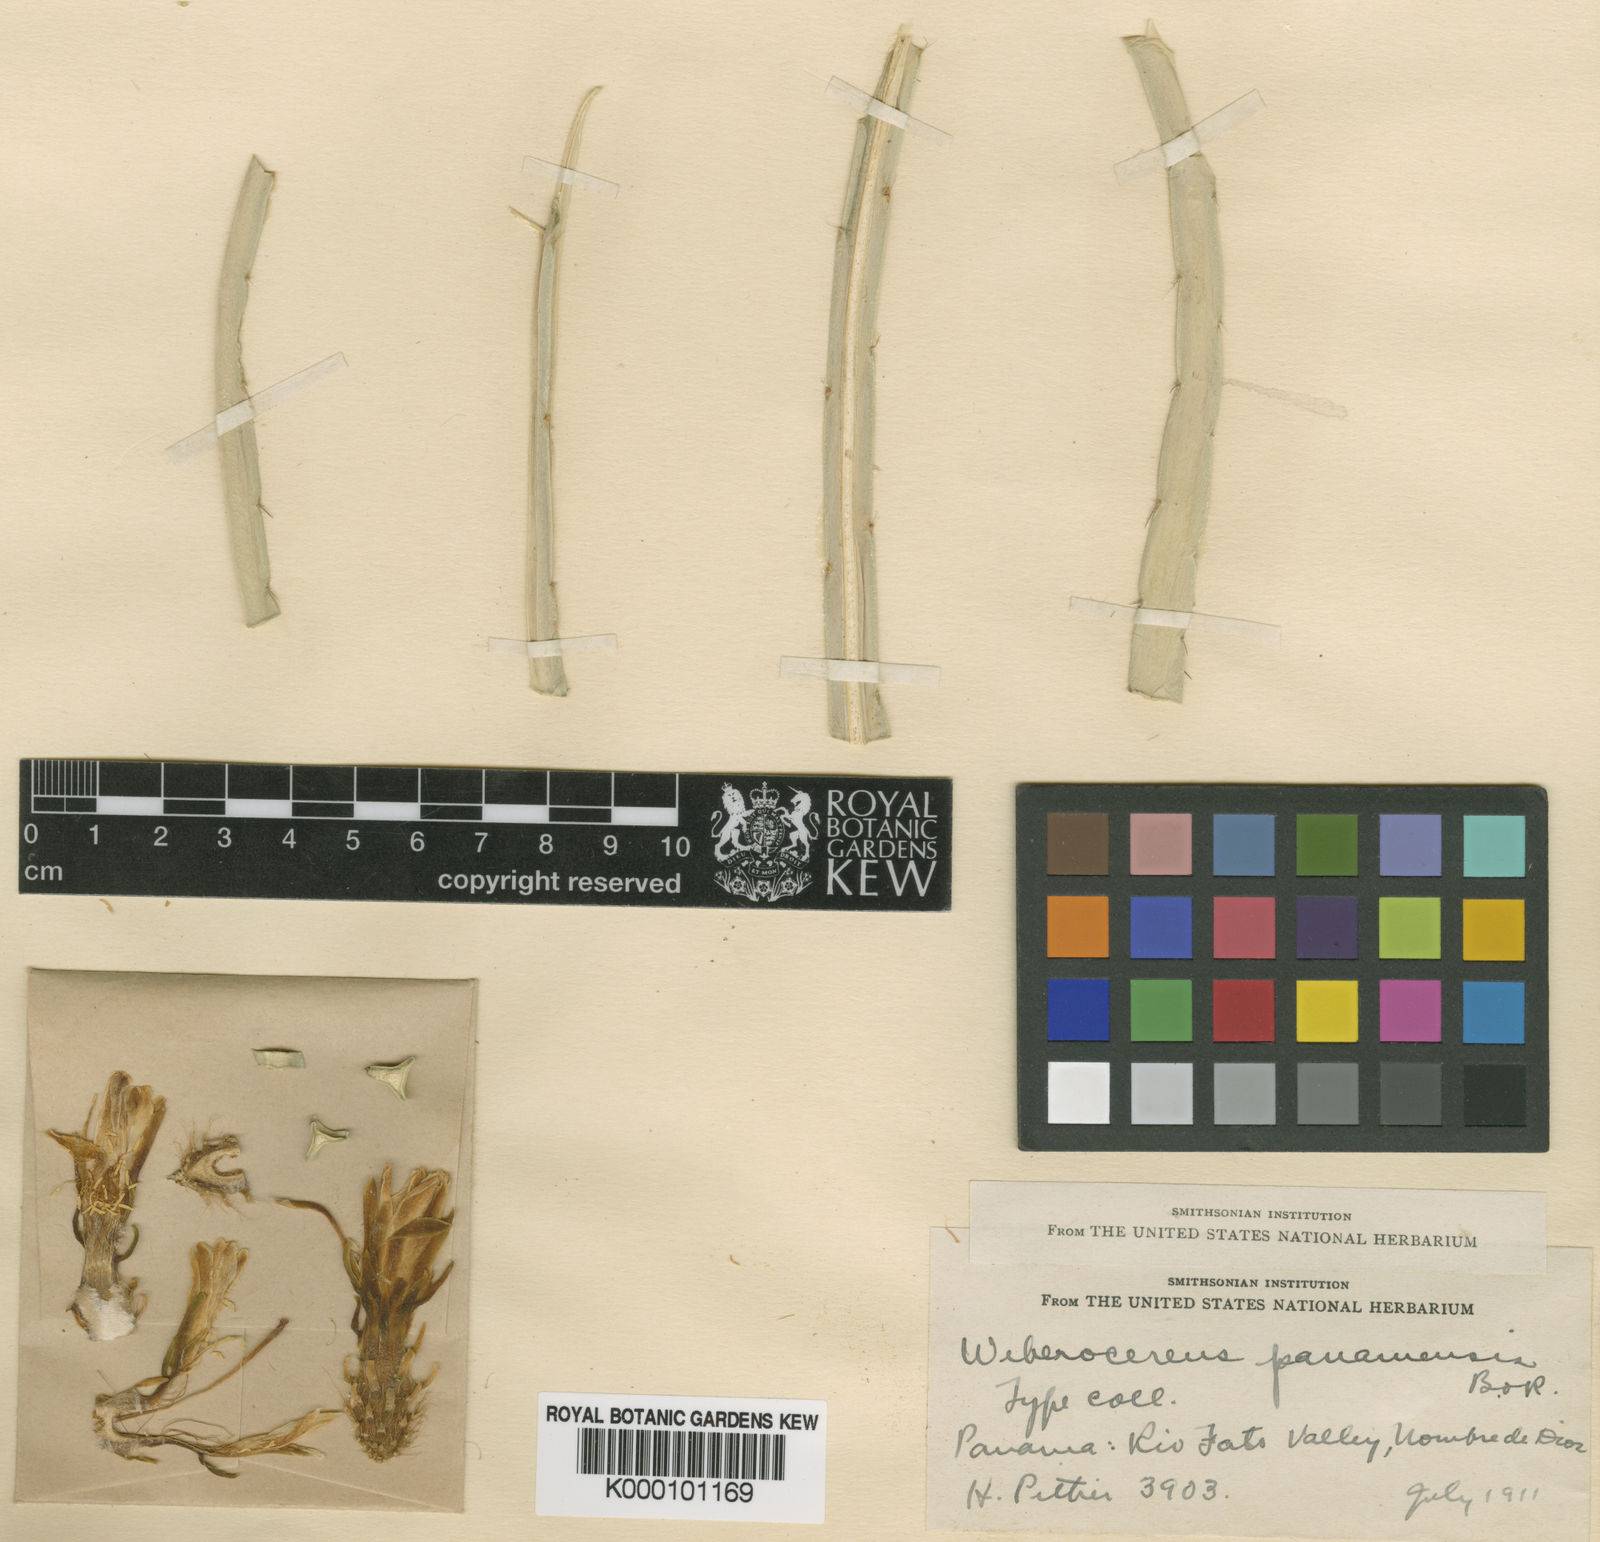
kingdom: Plantae
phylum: Tracheophyta
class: Magnoliopsida
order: Caryophyllales
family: Cactaceae
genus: Weberocereus
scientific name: Weberocereus tunilla
